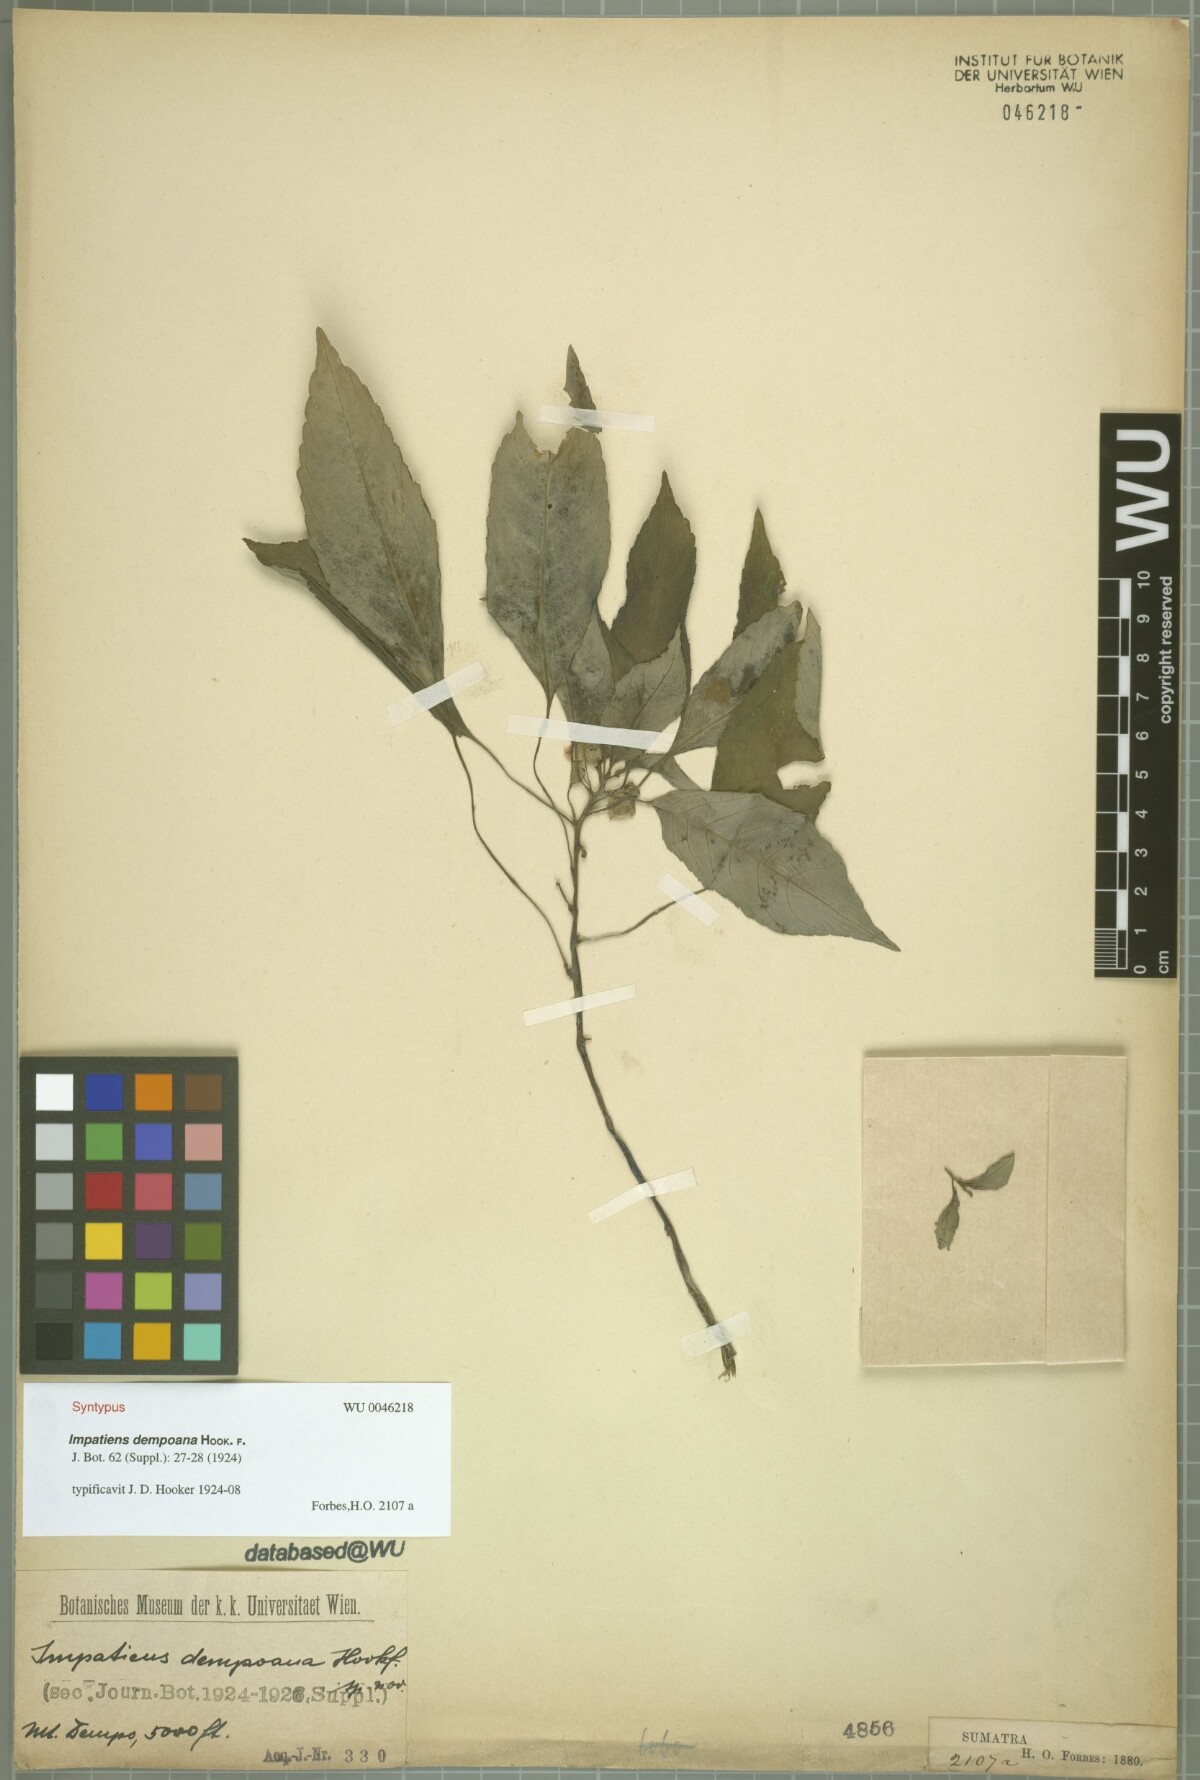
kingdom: Plantae
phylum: Tracheophyta
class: Magnoliopsida
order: Ericales
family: Balsaminaceae
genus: Impatiens
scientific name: Impatiens dempoana
